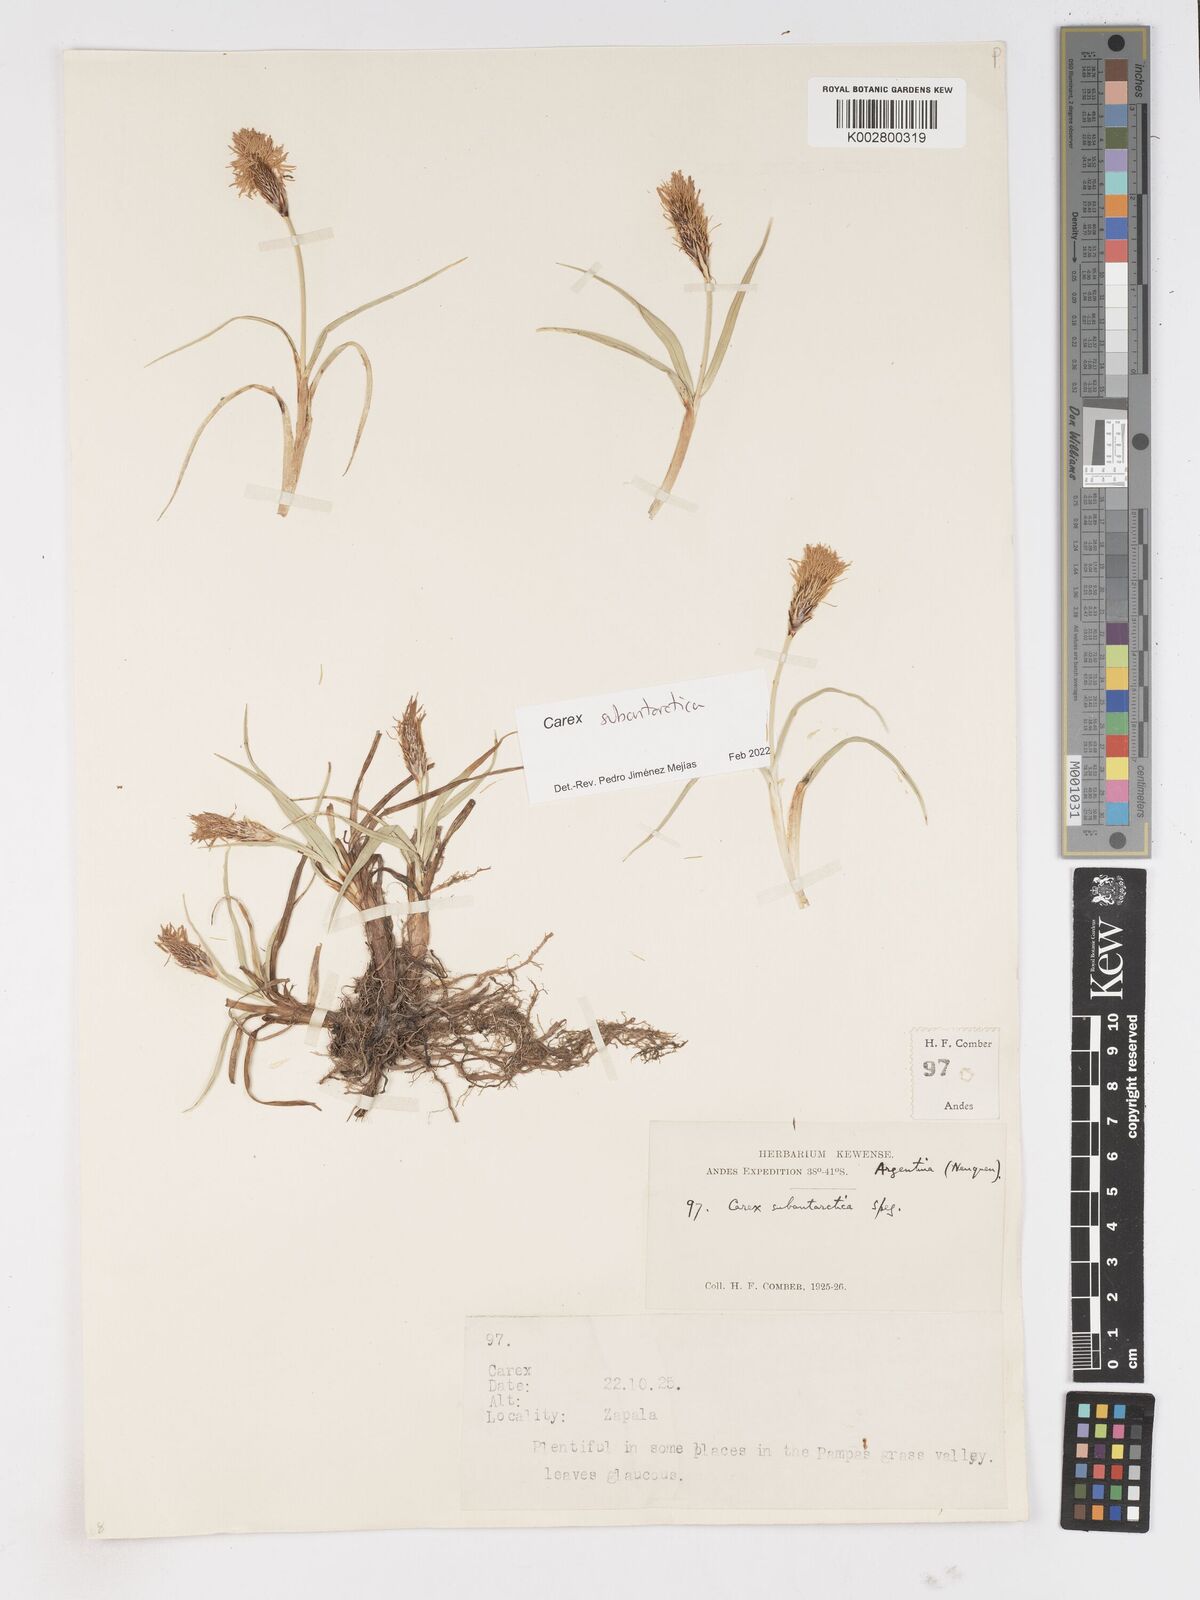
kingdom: Plantae
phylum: Tracheophyta
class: Liliopsida
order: Poales
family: Cyperaceae
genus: Carex
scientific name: Carex subantarctica
